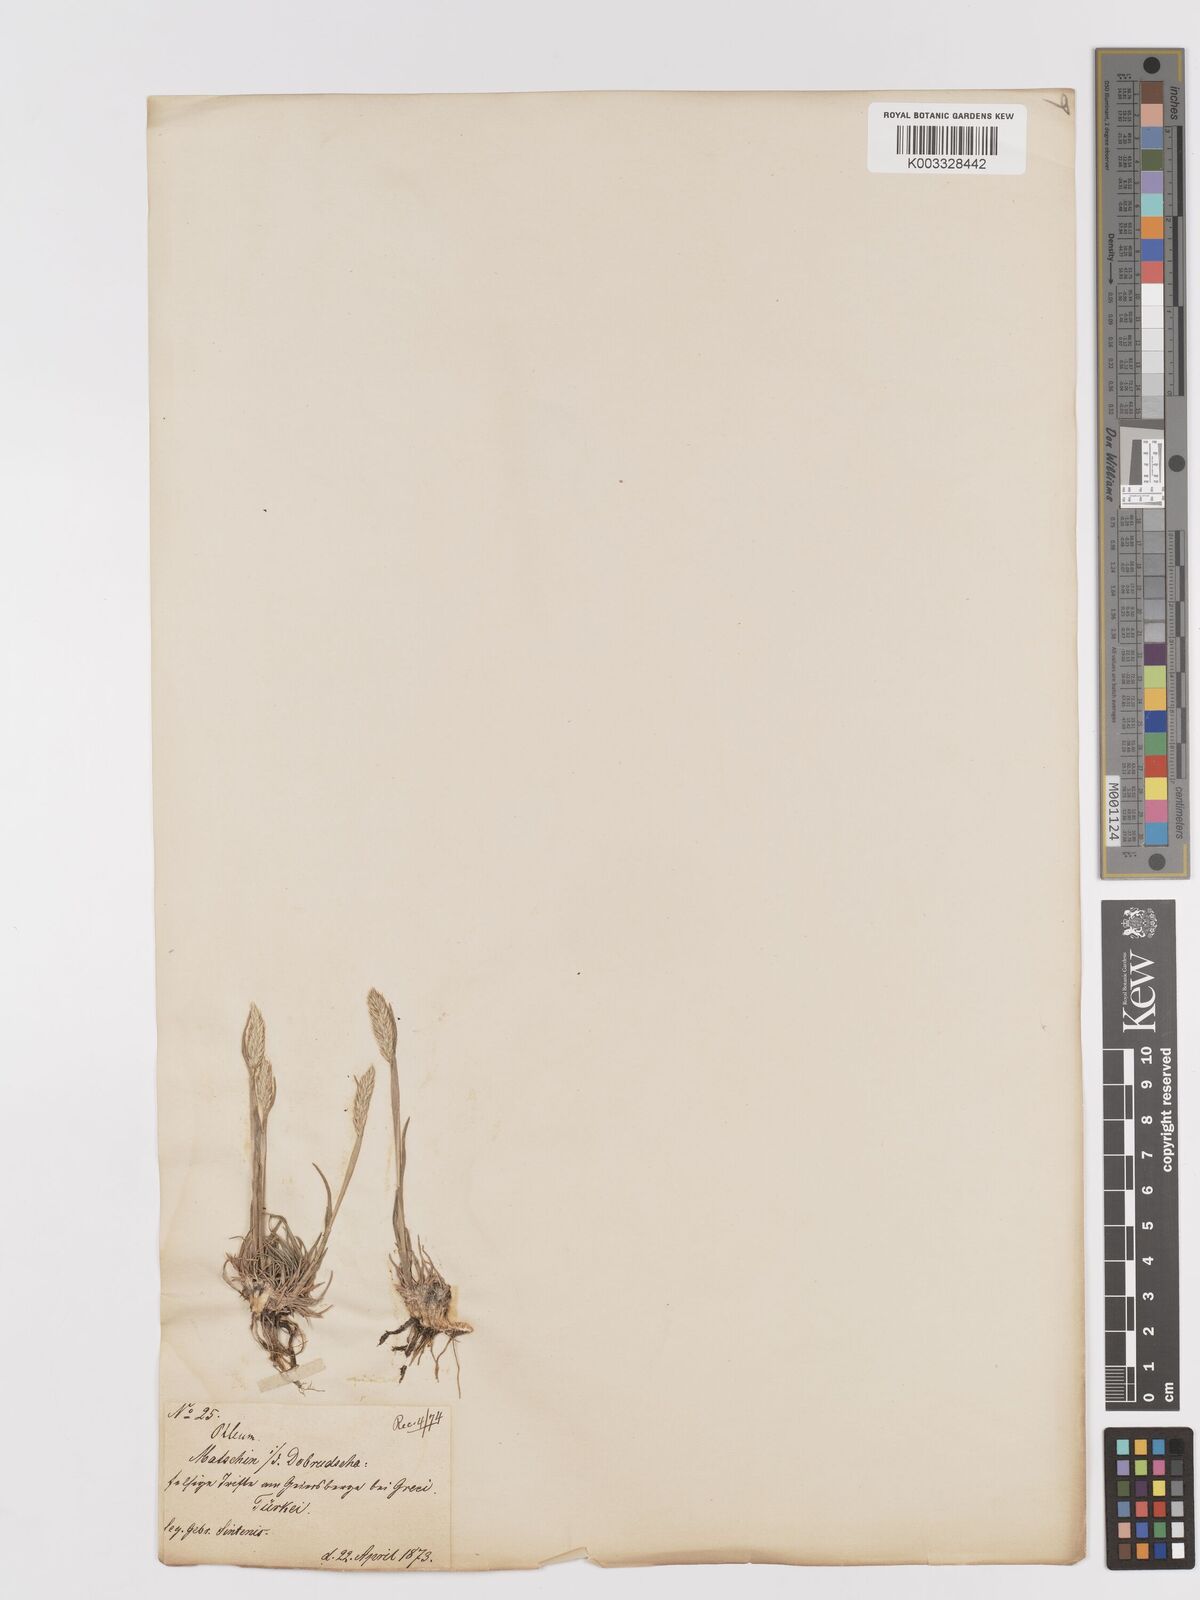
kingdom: Plantae
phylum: Tracheophyta
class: Liliopsida
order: Poales
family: Poaceae
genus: Phleum
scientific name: Phleum phleoides
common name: Purple-stem cat's-tail
